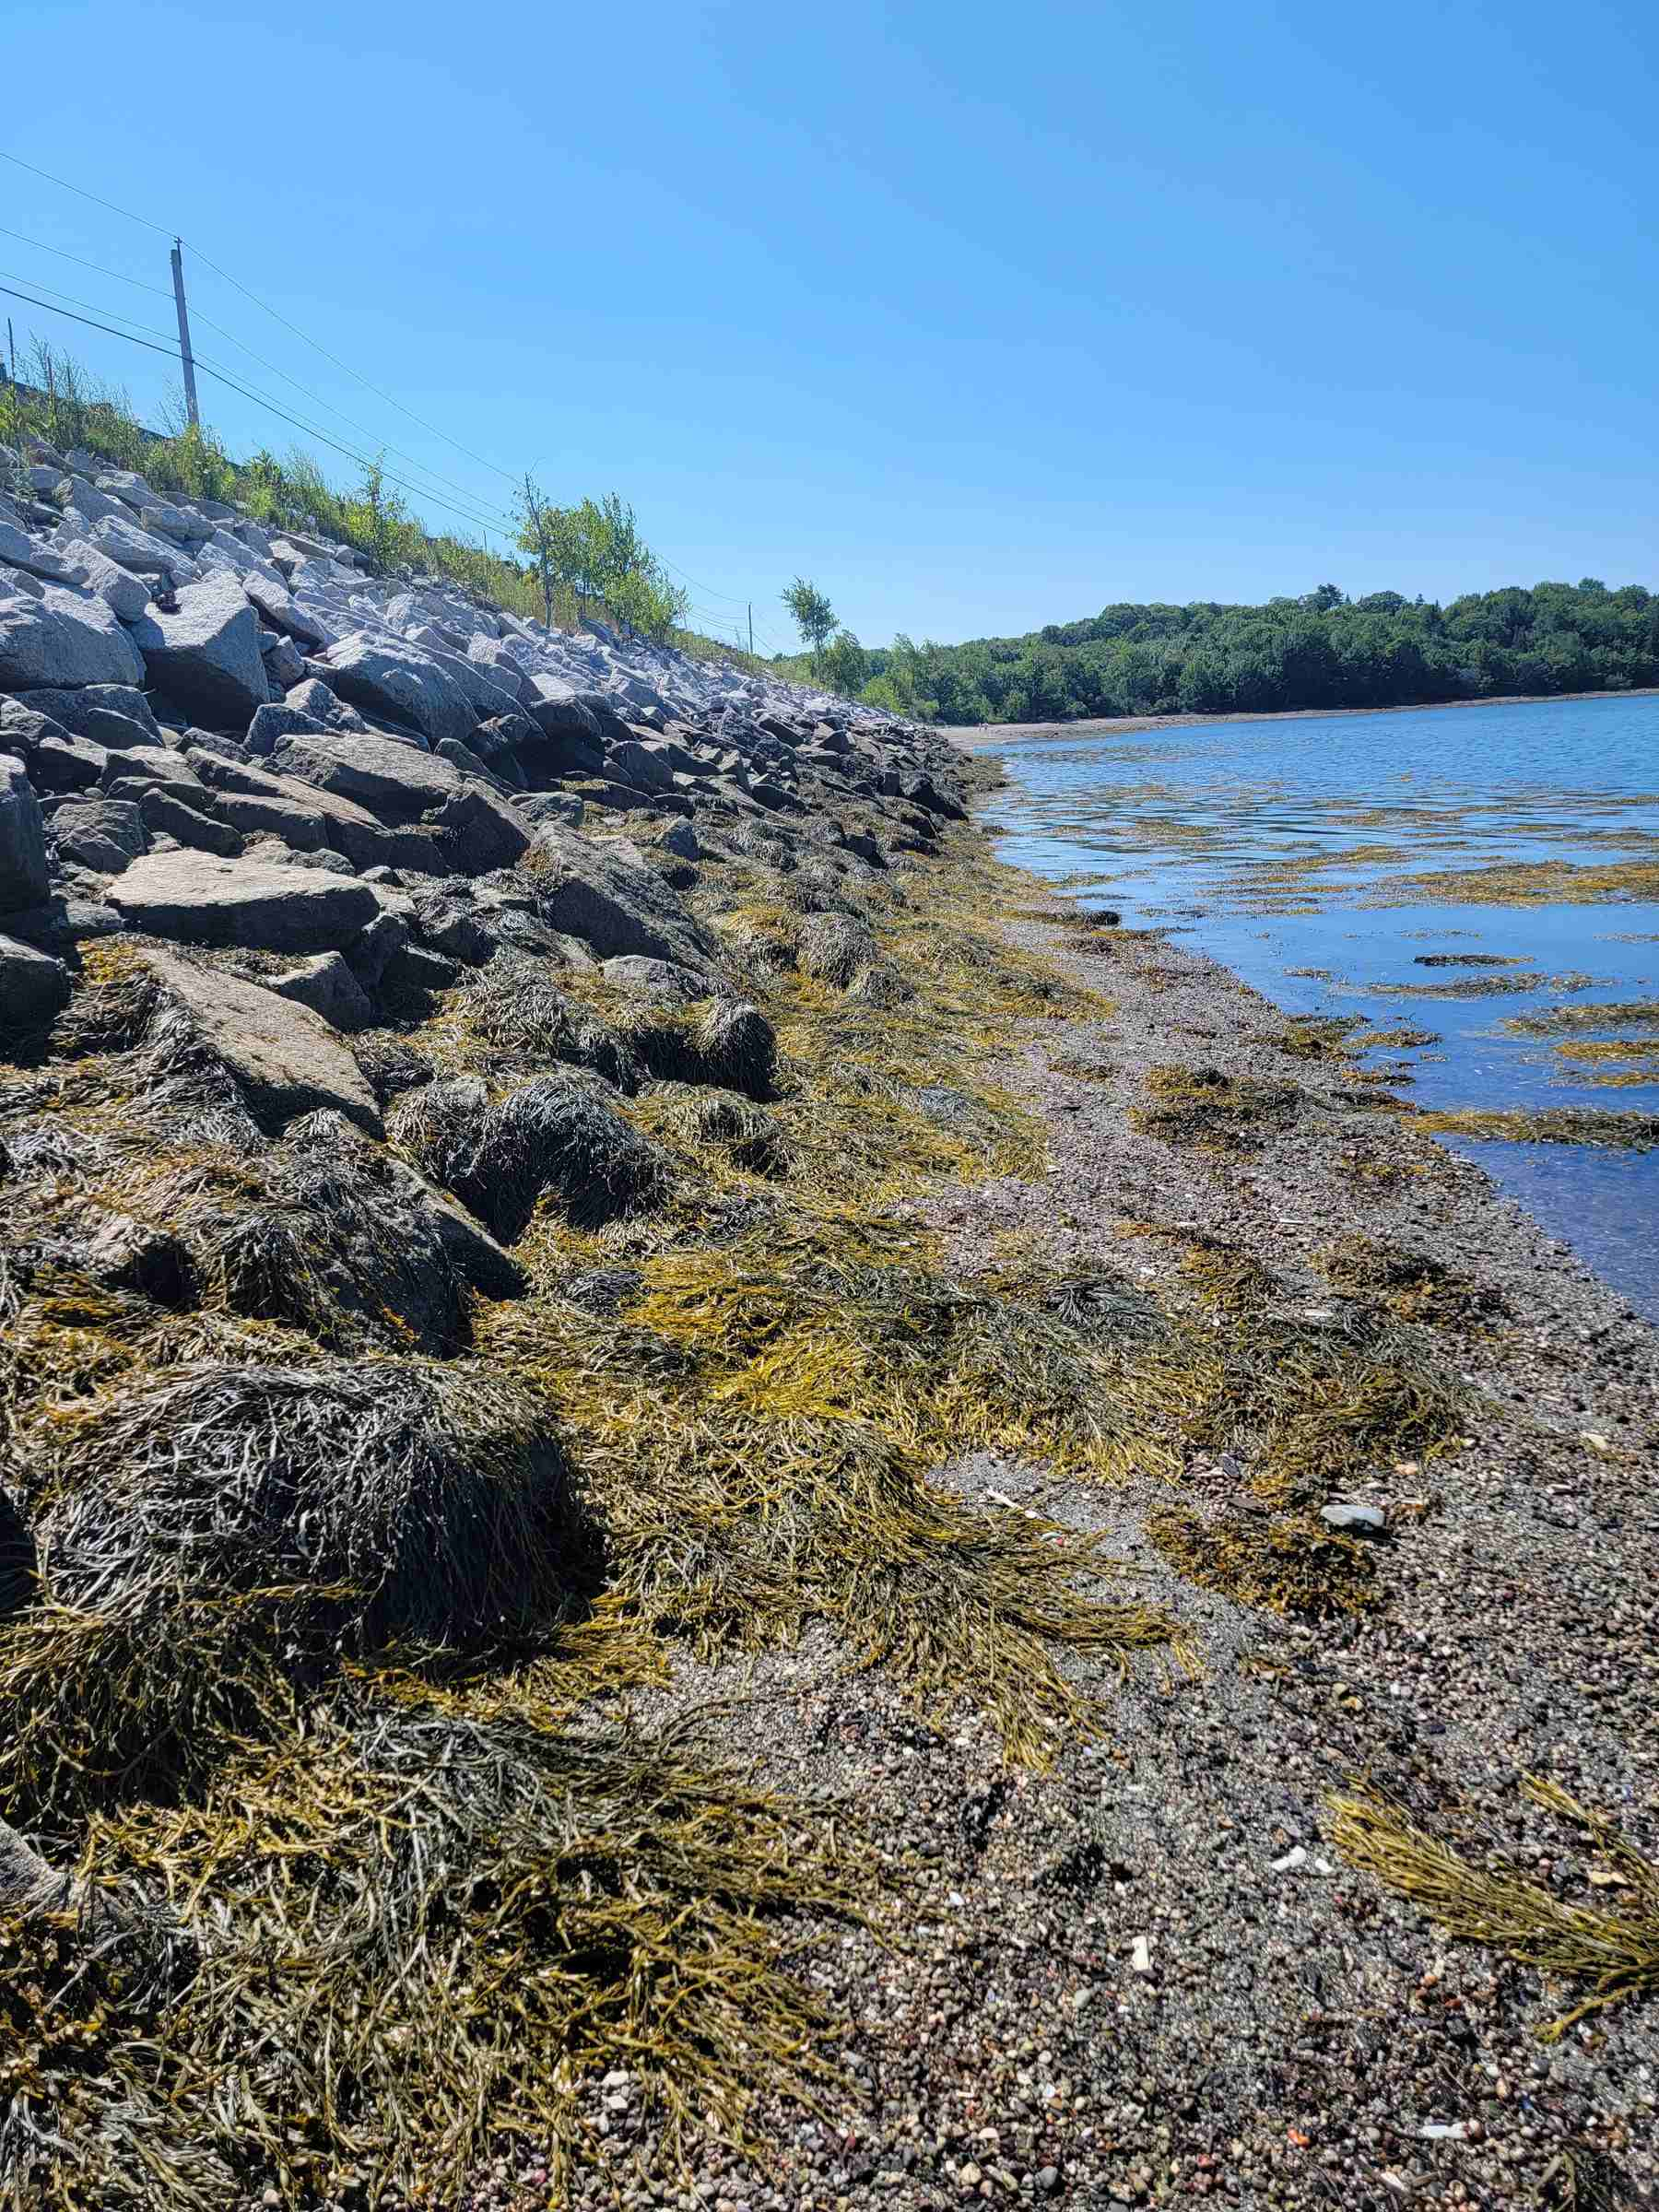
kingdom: Chromista
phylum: Ochrophyta
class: Phaeophyceae
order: Fucales
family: Fucaceae
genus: Ascophyllum
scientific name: Ascophyllum nodosum
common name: Rockweed
